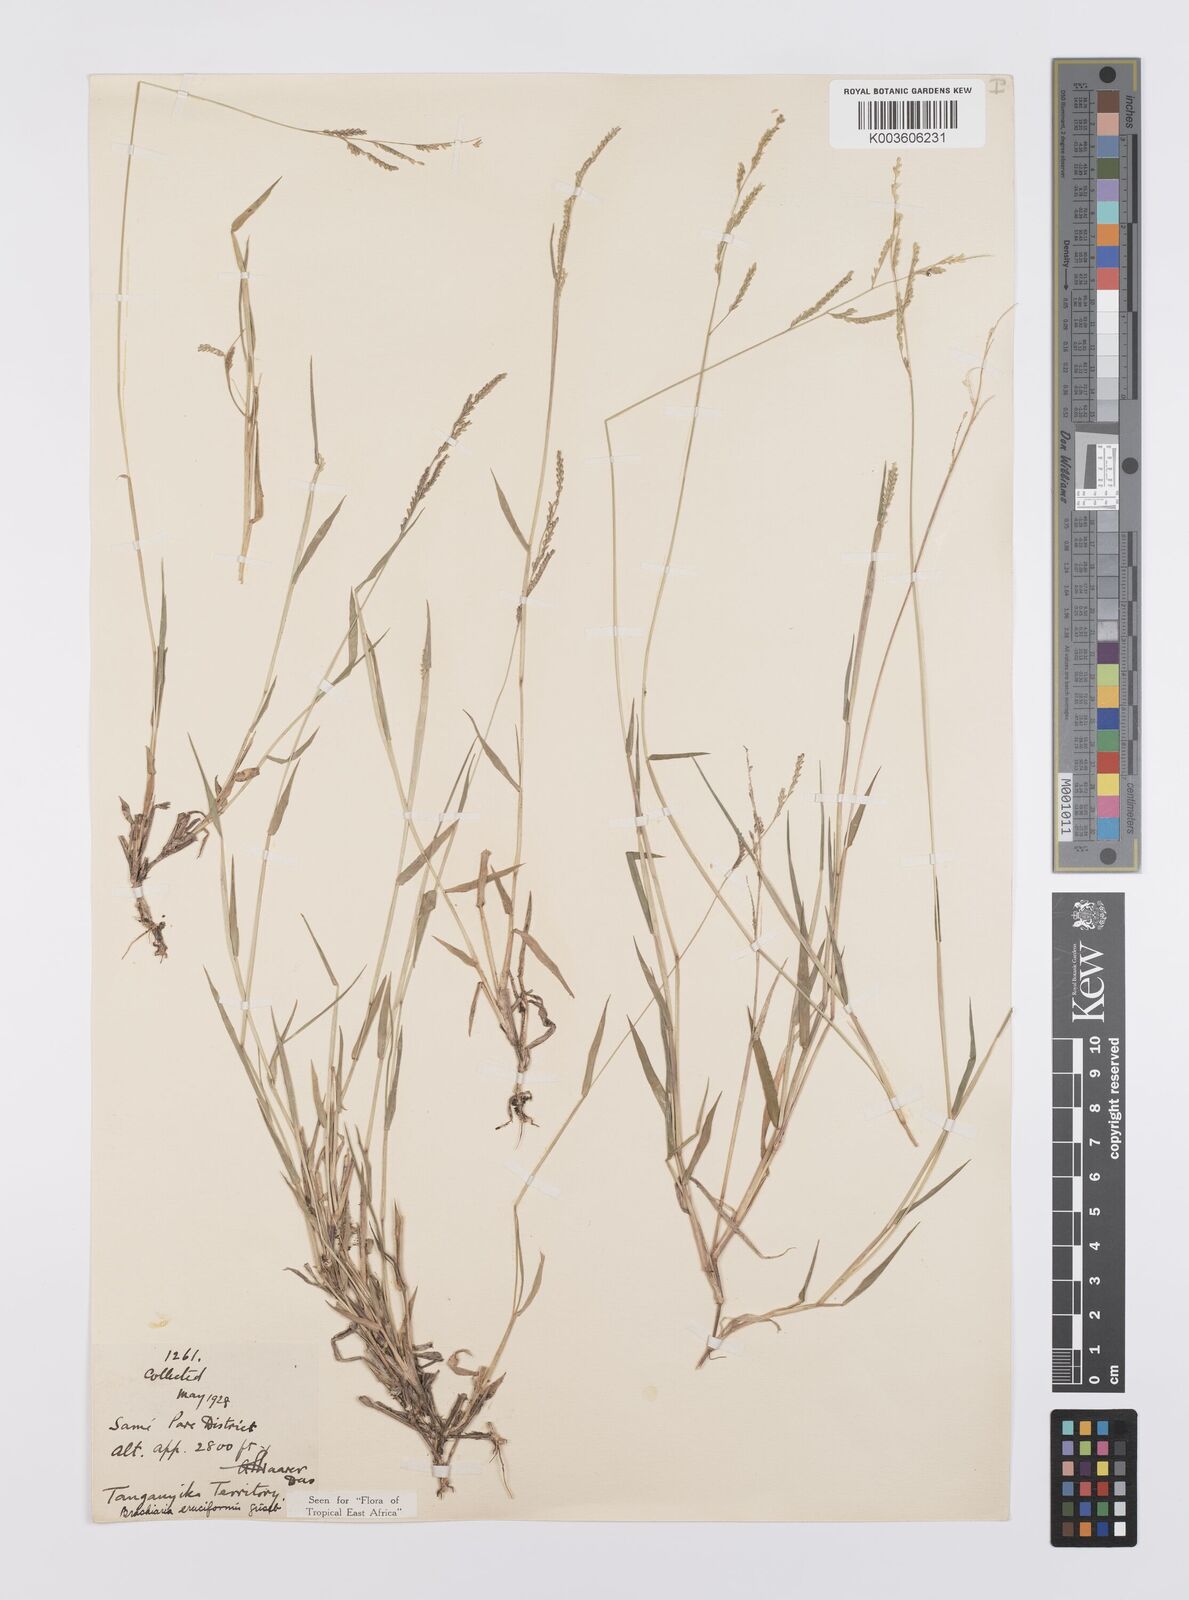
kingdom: Plantae
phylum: Tracheophyta
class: Liliopsida
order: Poales
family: Poaceae
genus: Moorochloa
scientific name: Moorochloa eruciformis
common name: Sweet signalgrass
